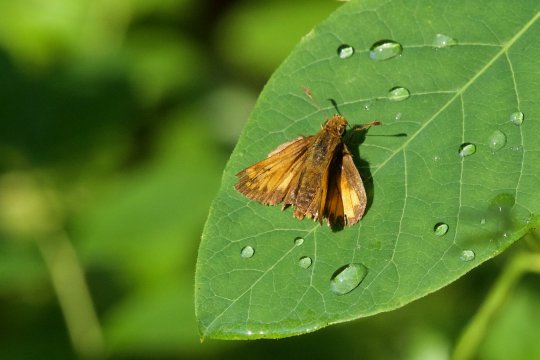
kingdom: Animalia
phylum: Arthropoda
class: Insecta
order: Lepidoptera
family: Hesperiidae
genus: Lon
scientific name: Lon hobomok
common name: Hobomok Skipper
